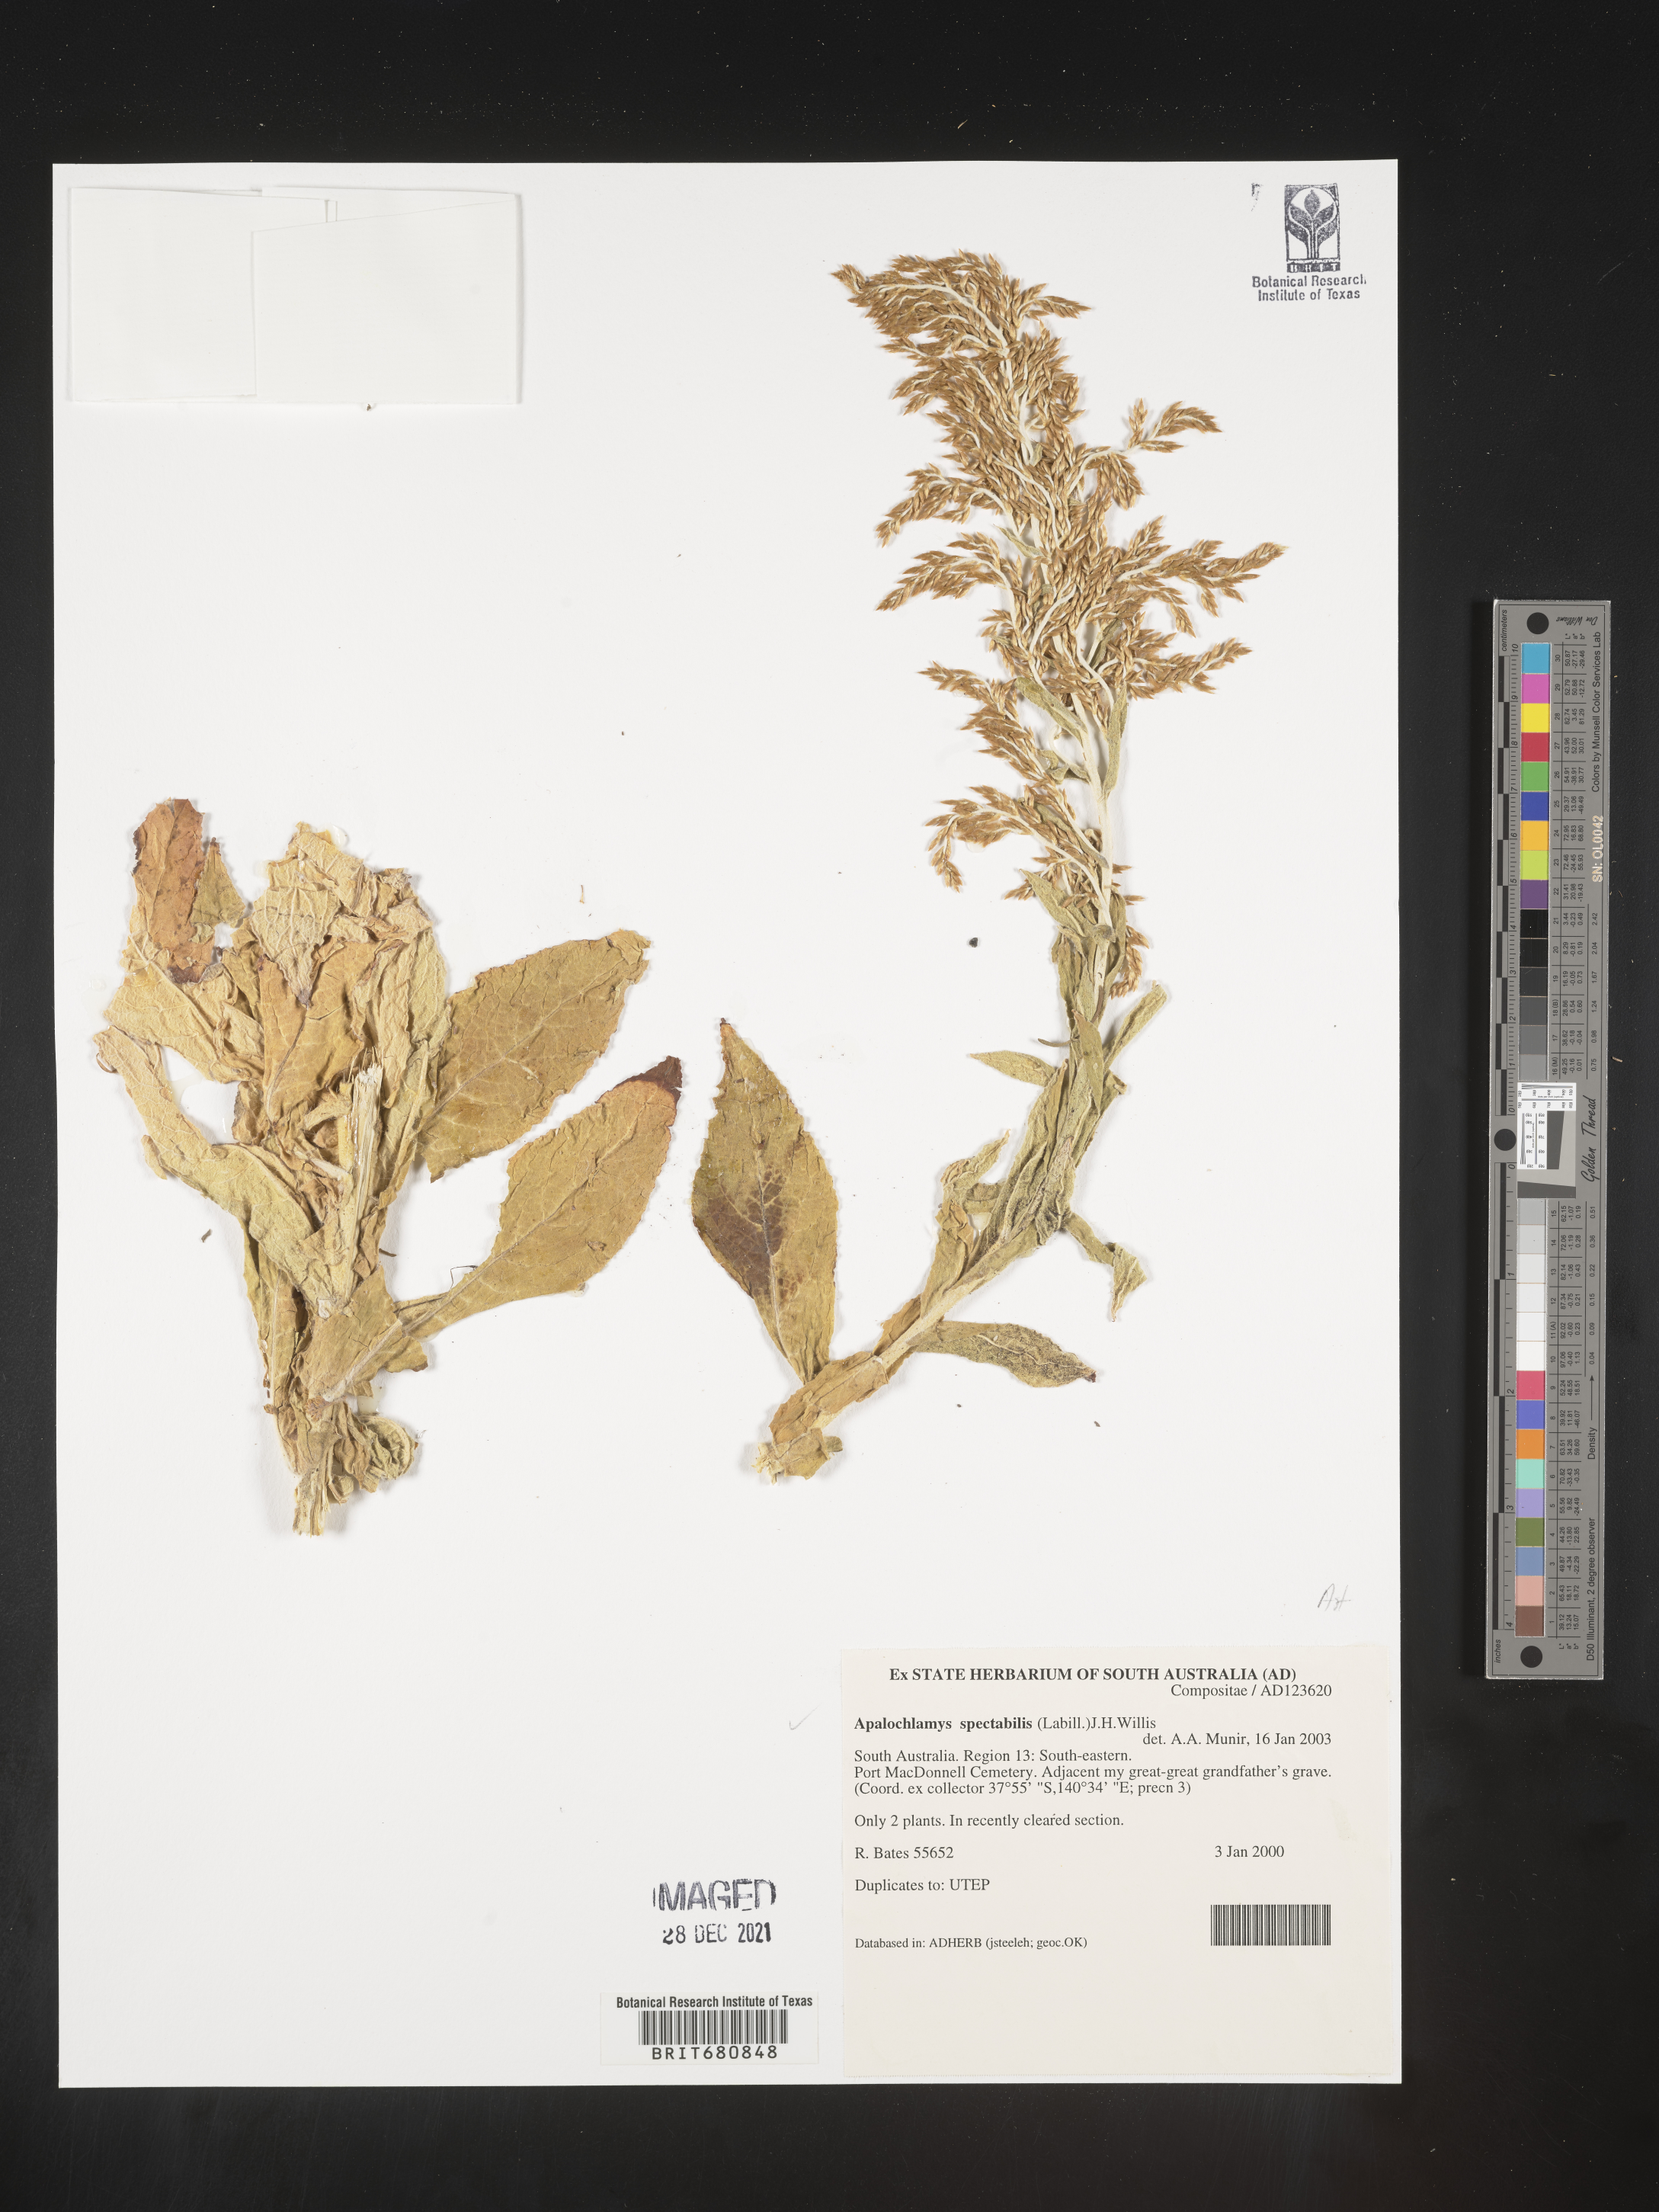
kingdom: Plantae
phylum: Tracheophyta
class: Magnoliopsida
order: Asterales
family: Asteraceae
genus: Apalochlamys
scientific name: Apalochlamys
